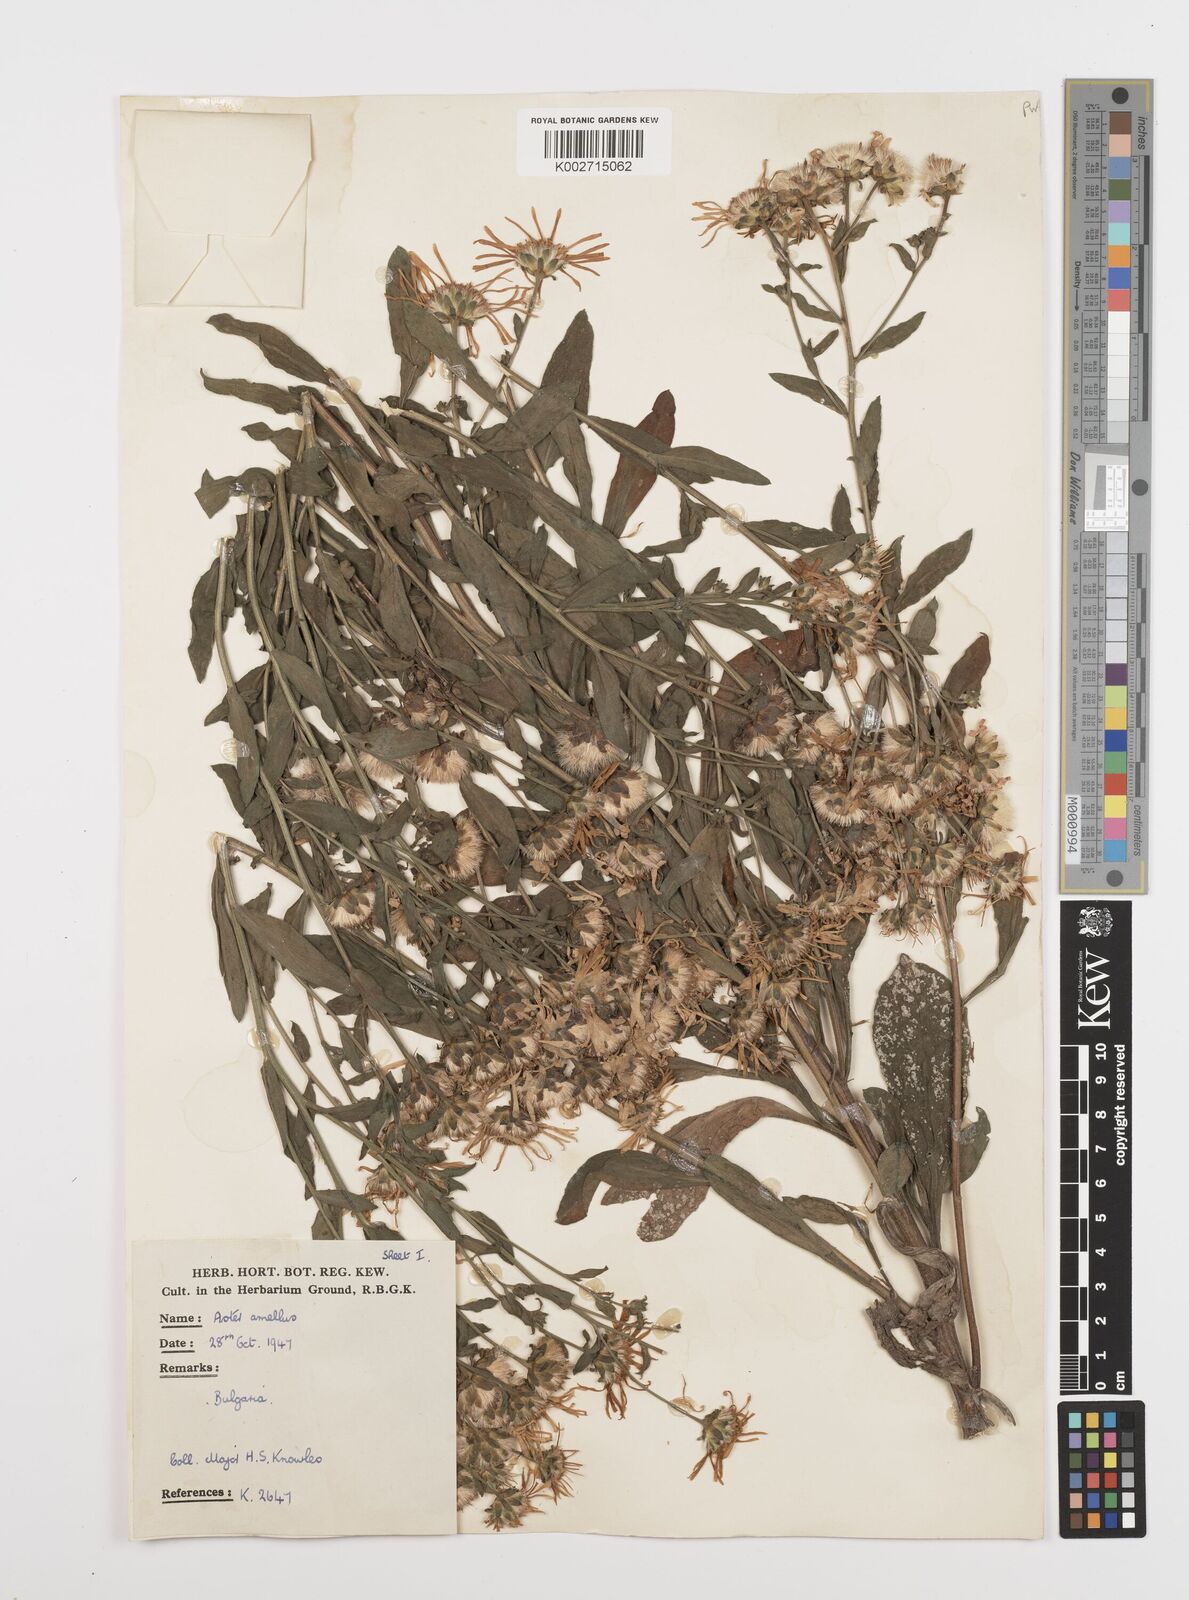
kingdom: Plantae
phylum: Tracheophyta
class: Magnoliopsida
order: Asterales
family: Asteraceae
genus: Aster
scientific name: Aster
